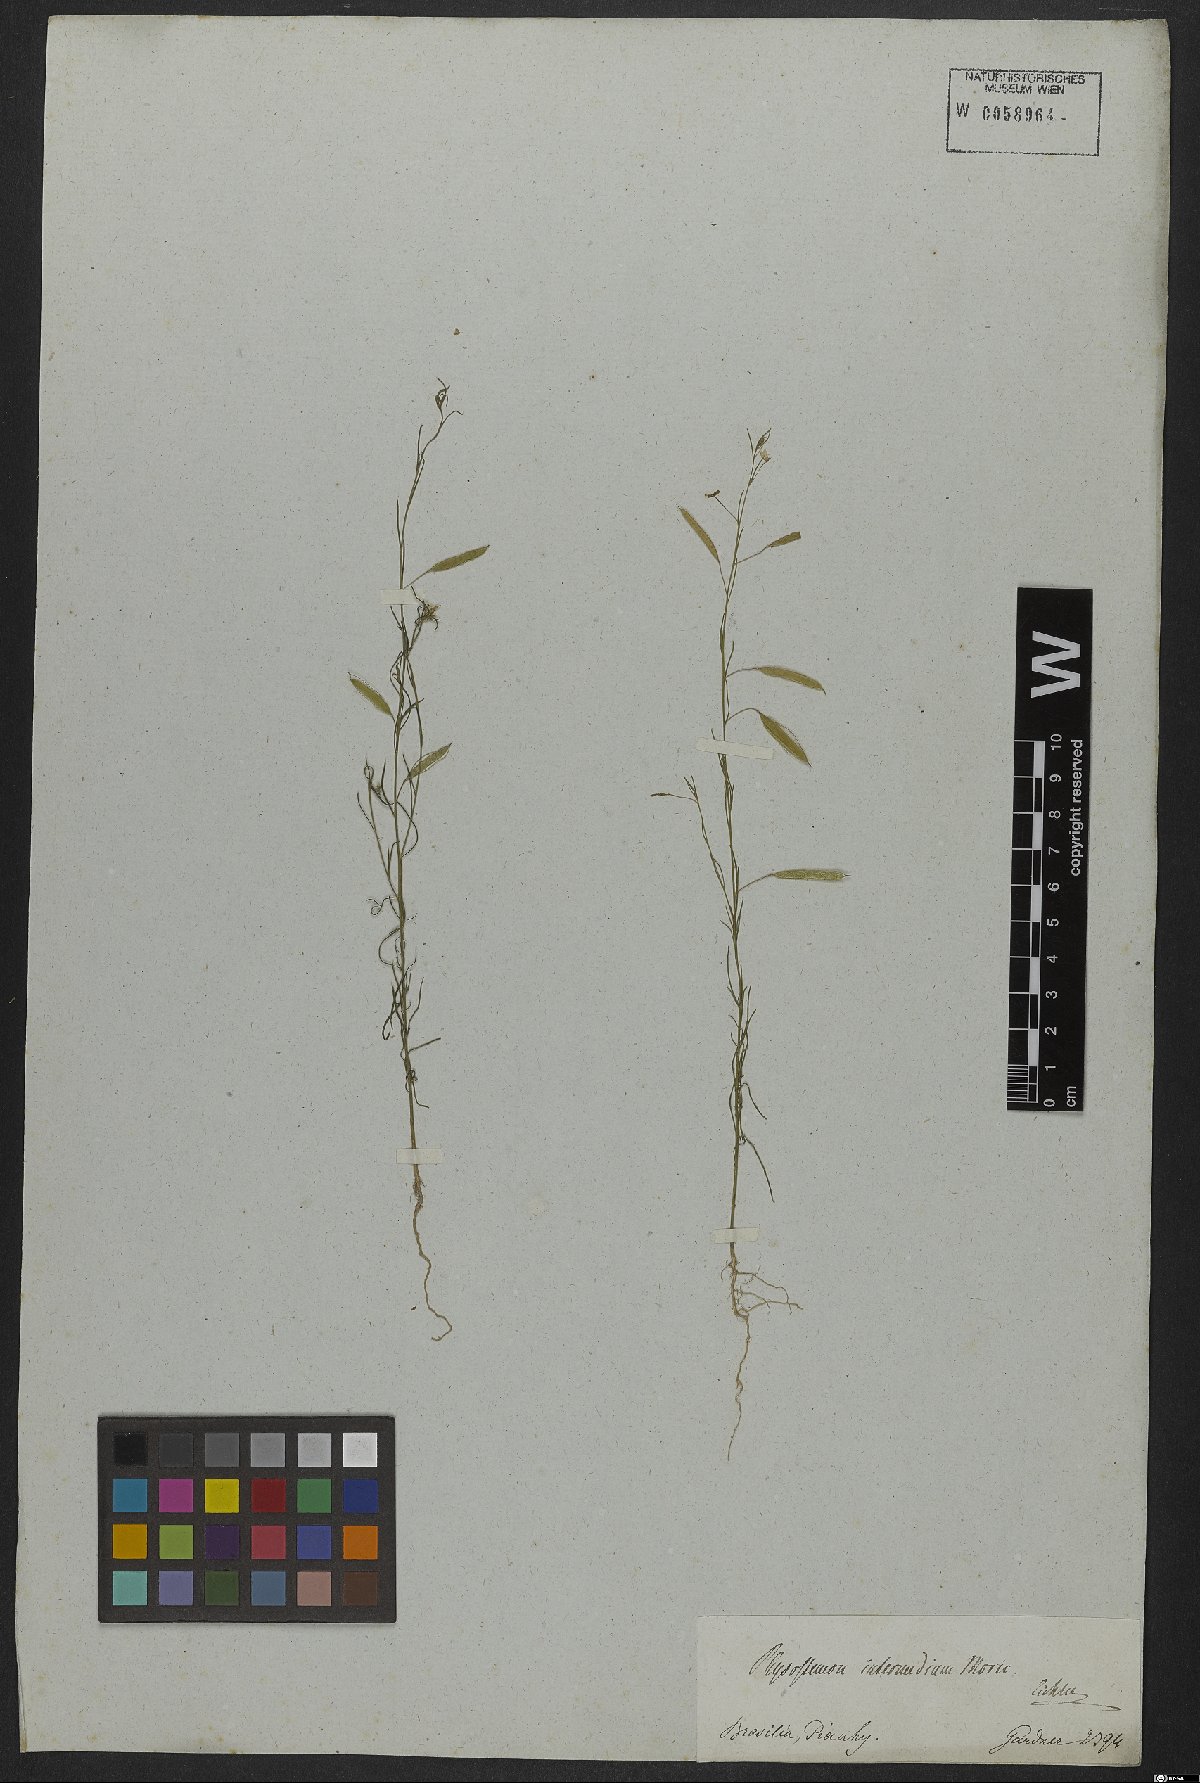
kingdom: Plantae
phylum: Tracheophyta
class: Magnoliopsida
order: Brassicales
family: Cleomaceae
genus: Andinocleome
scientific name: Andinocleome anomala
